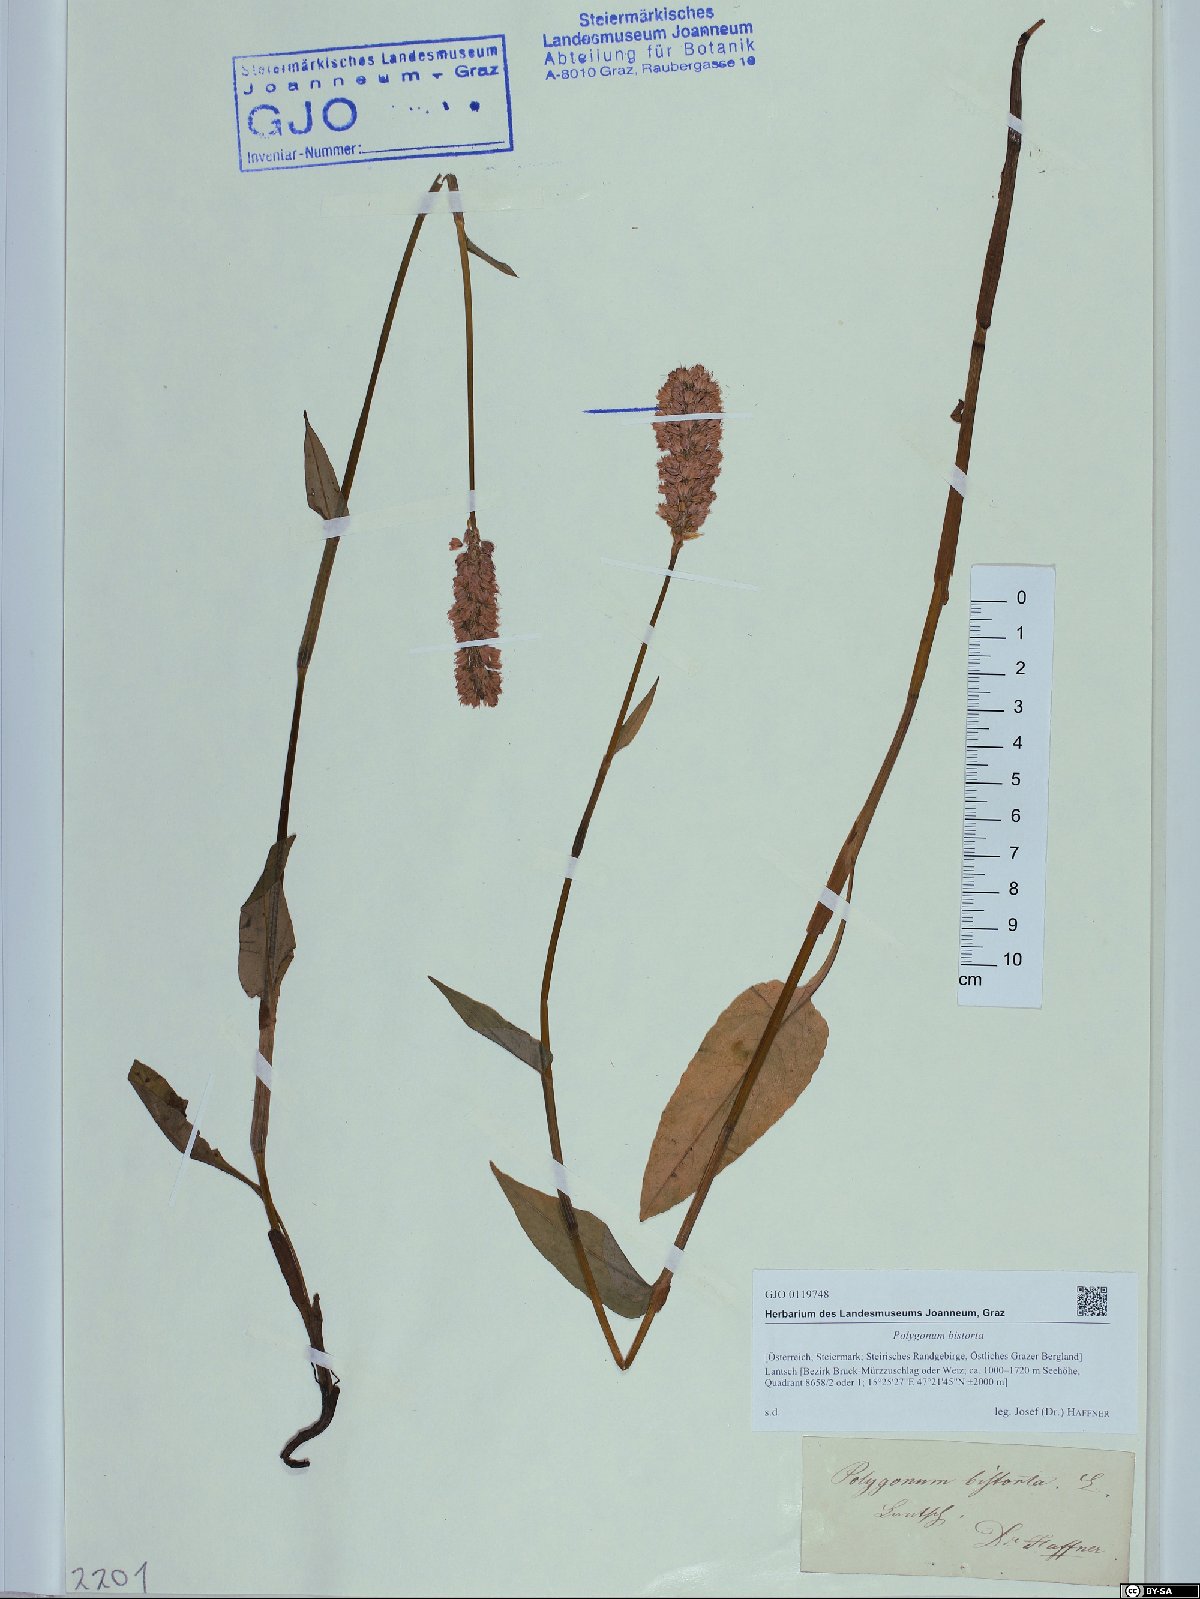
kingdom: Plantae
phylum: Tracheophyta
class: Magnoliopsida
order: Caryophyllales
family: Polygonaceae
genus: Bistorta
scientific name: Bistorta officinalis
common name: Common bistort
